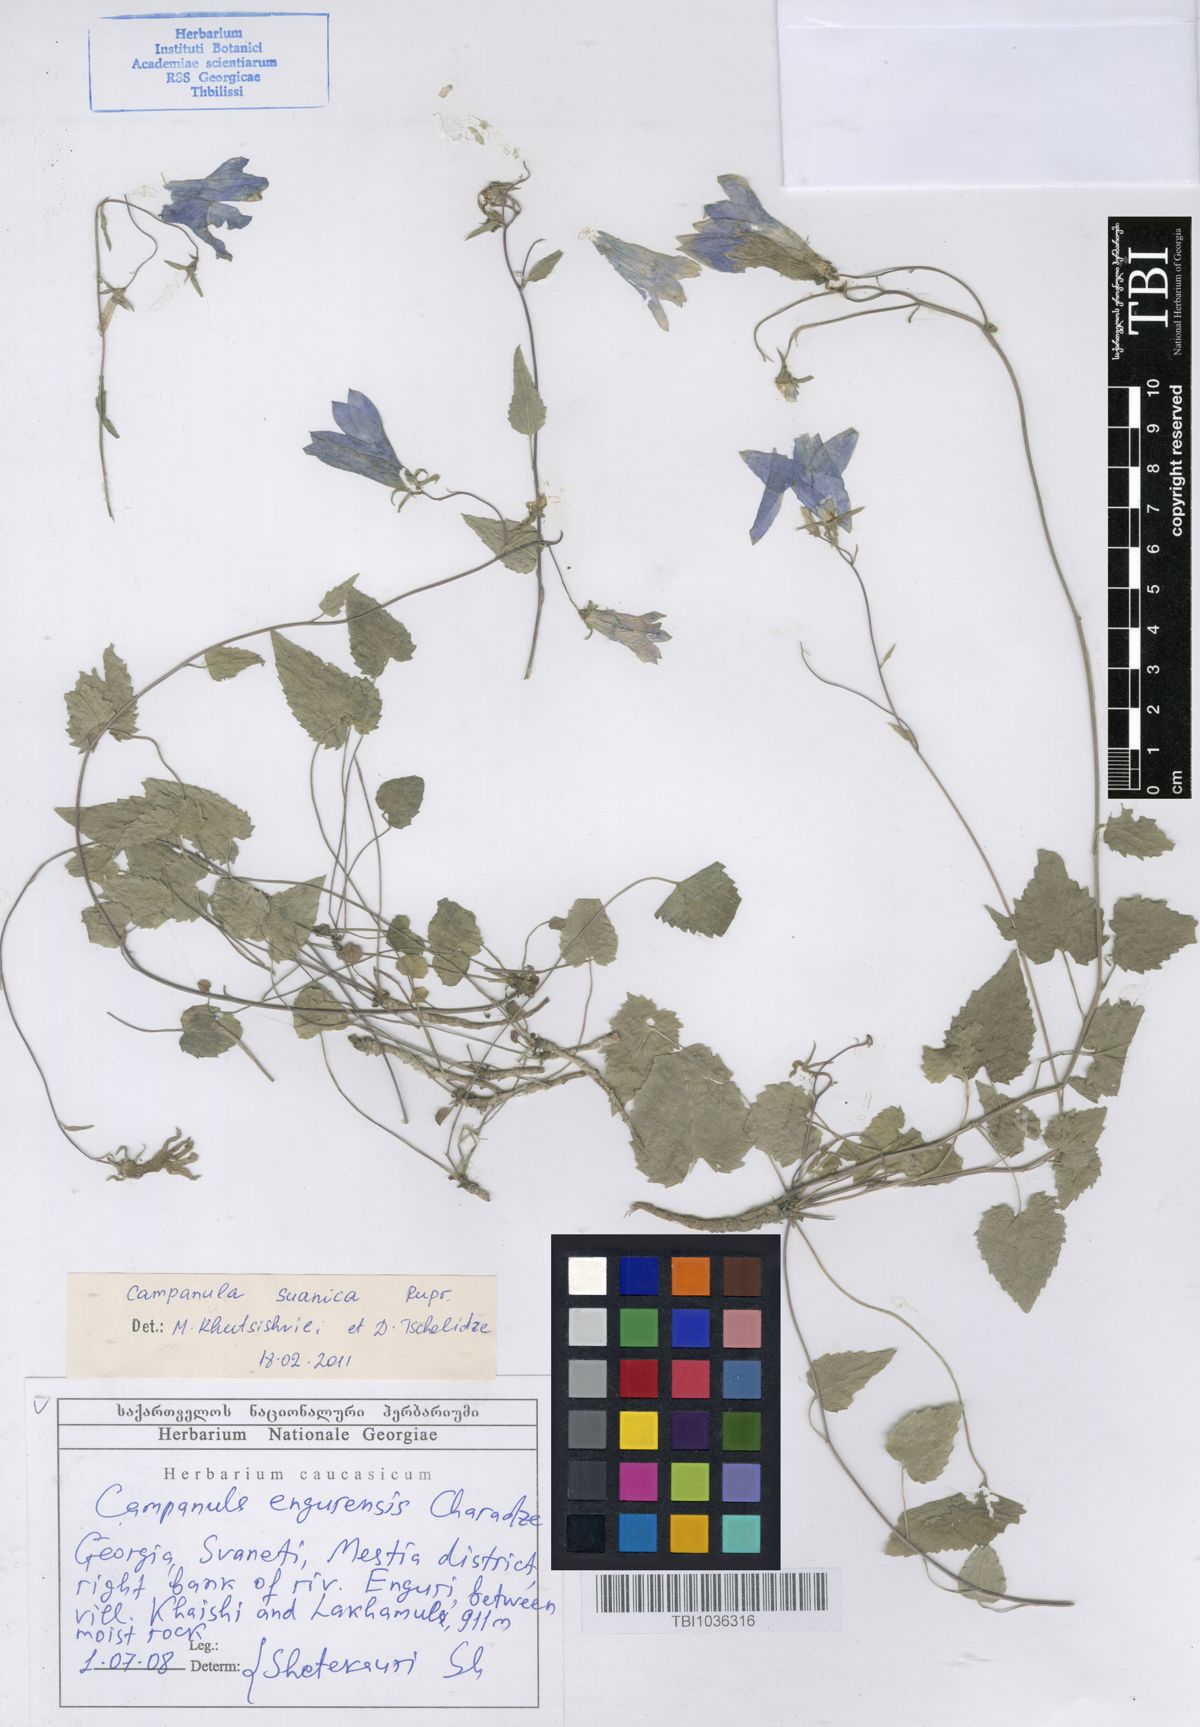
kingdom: Plantae
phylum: Tracheophyta
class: Magnoliopsida
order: Asterales
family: Campanulaceae
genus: Campanula
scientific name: Campanula suanetica
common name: Svanetian bellflower
